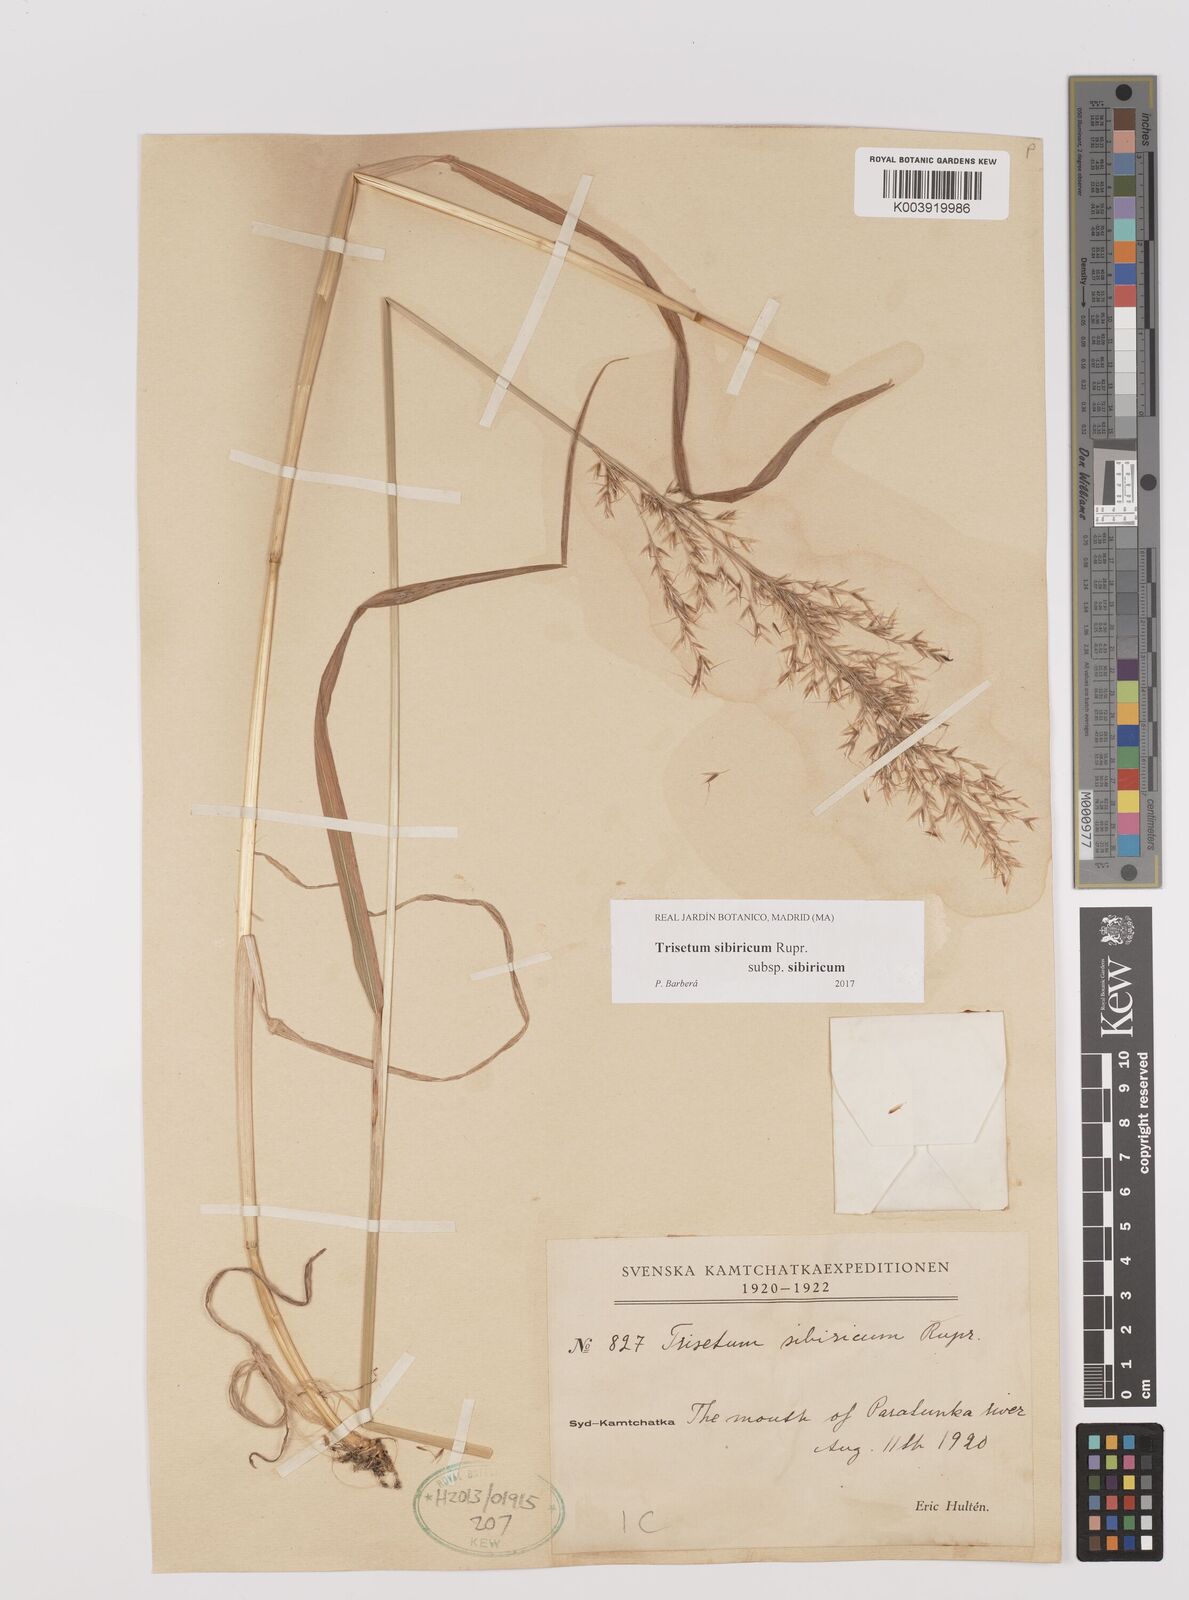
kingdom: Plantae
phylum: Tracheophyta
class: Liliopsida
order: Poales
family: Poaceae
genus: Sibirotrisetum
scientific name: Sibirotrisetum sibiricum
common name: Siberian false oat
